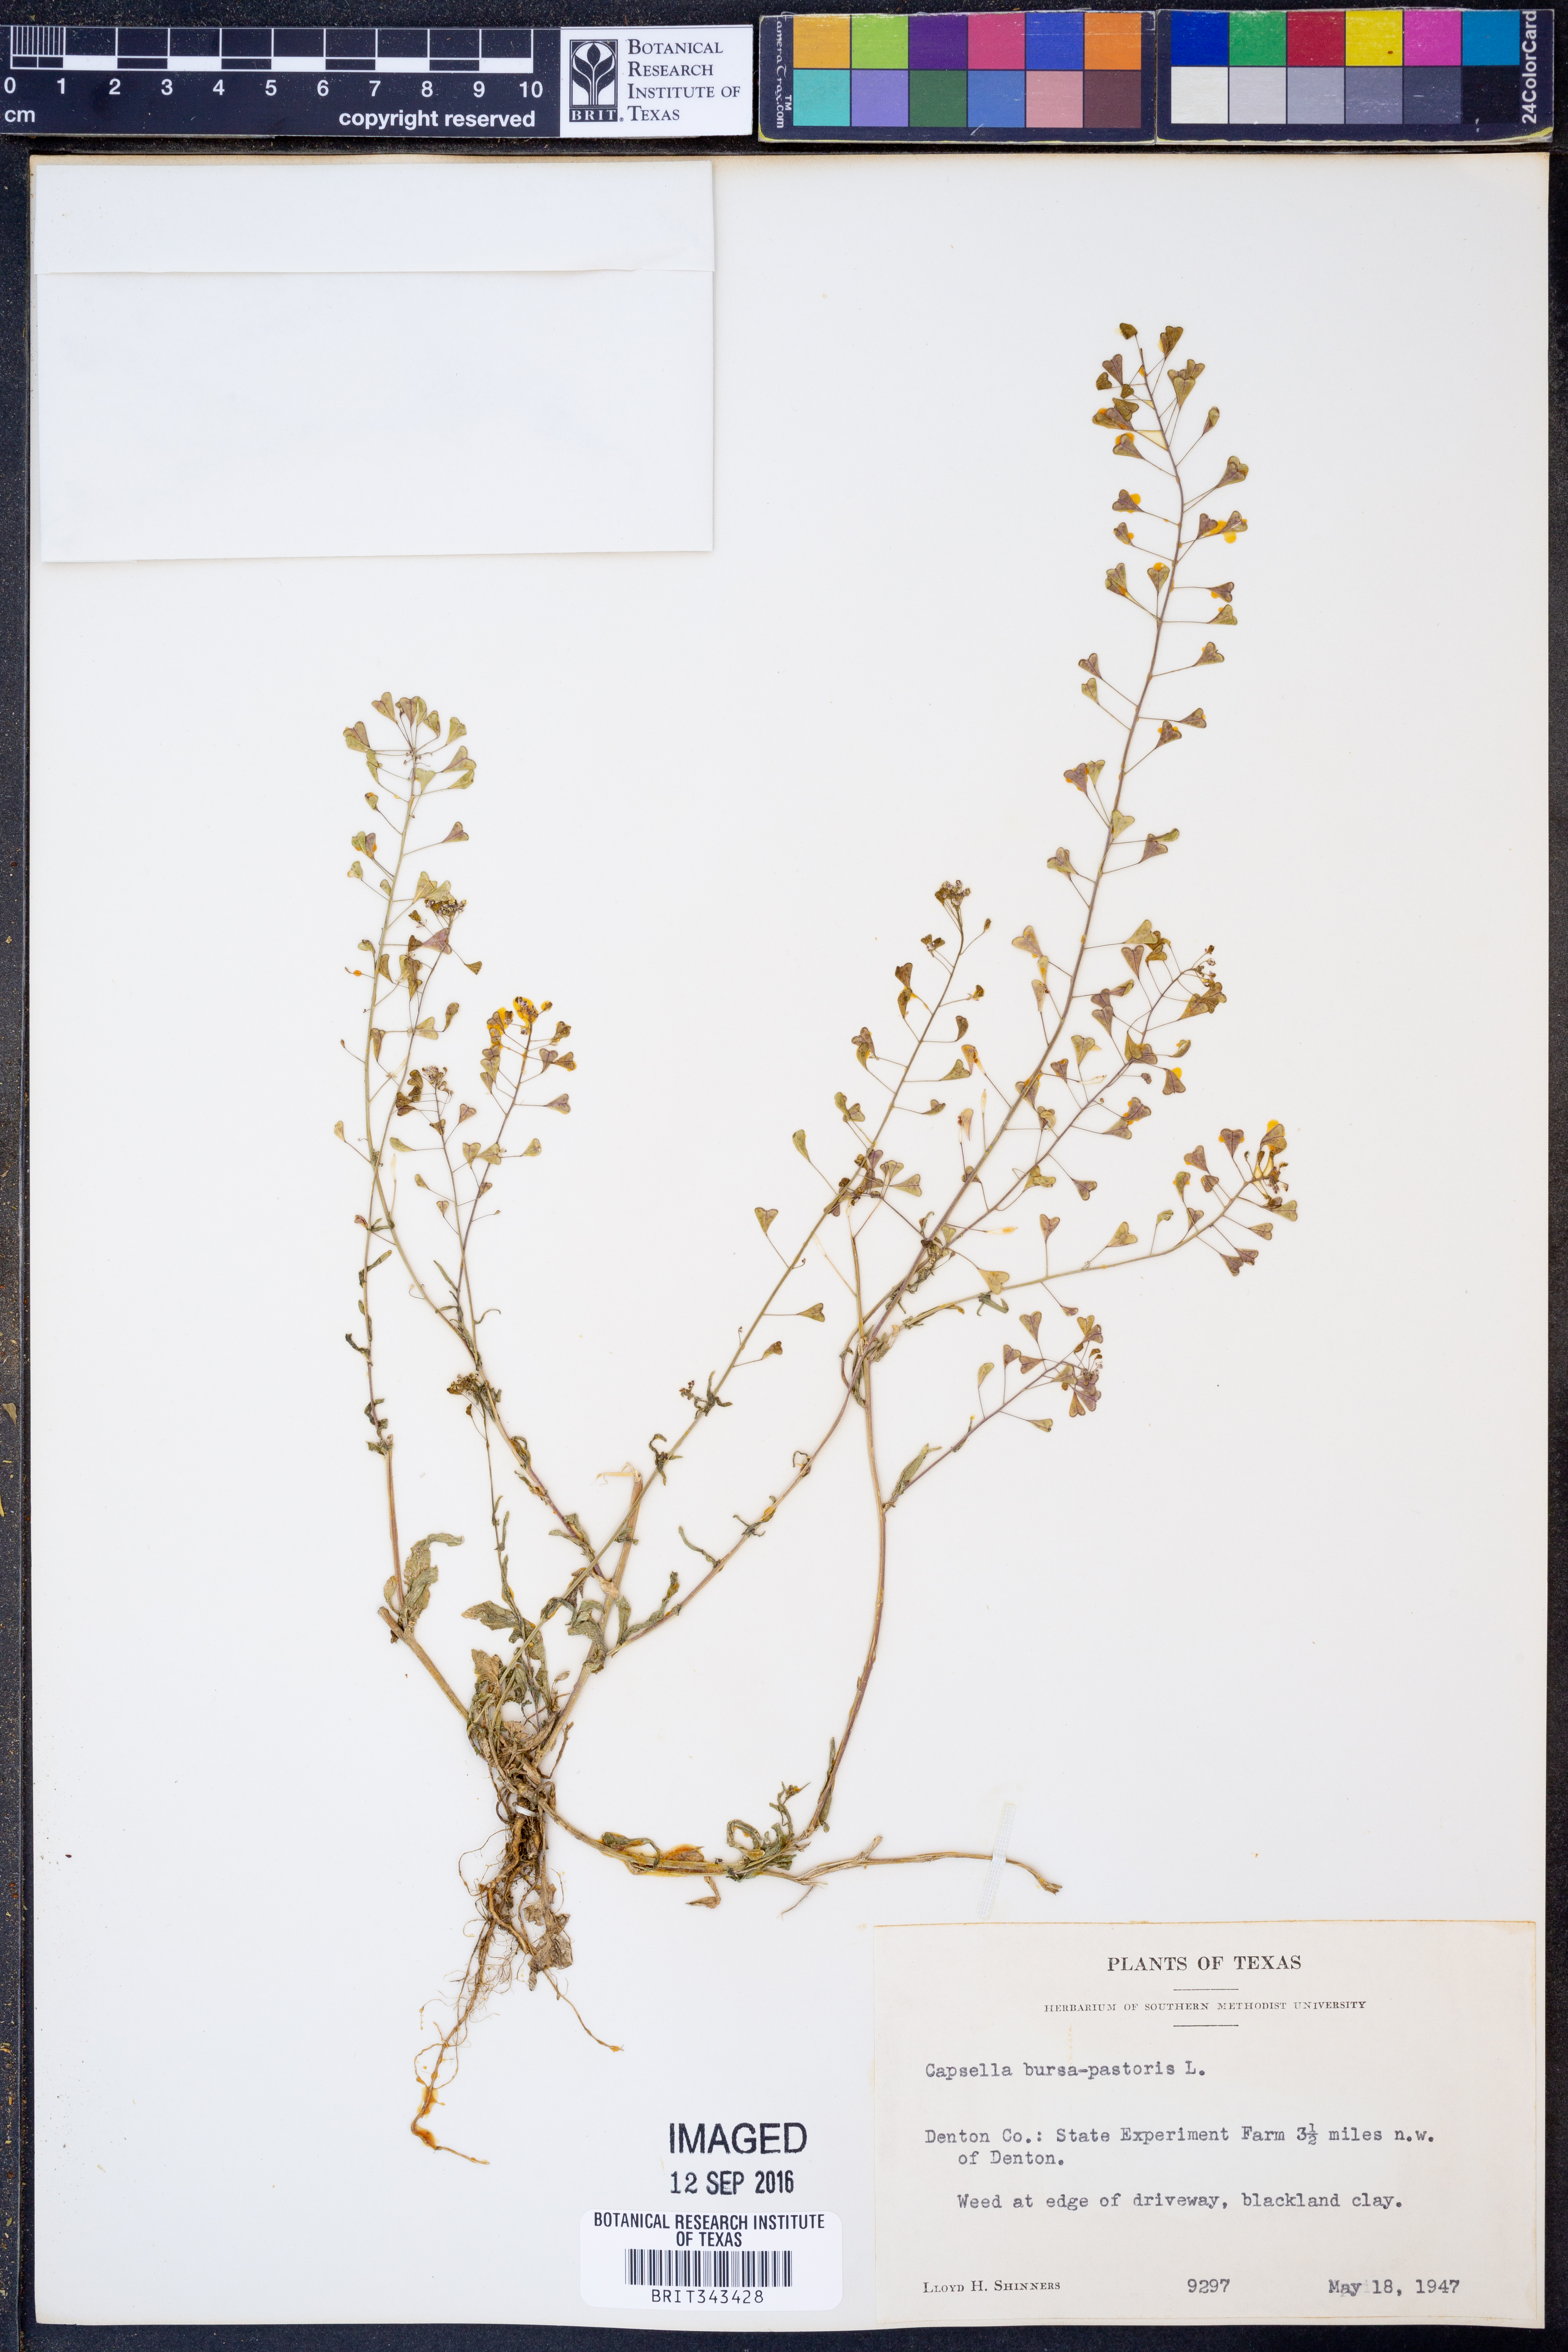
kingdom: Plantae
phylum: Tracheophyta
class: Magnoliopsida
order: Brassicales
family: Brassicaceae
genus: Capsella
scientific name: Capsella bursa-pastoris
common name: Shepherd's purse
